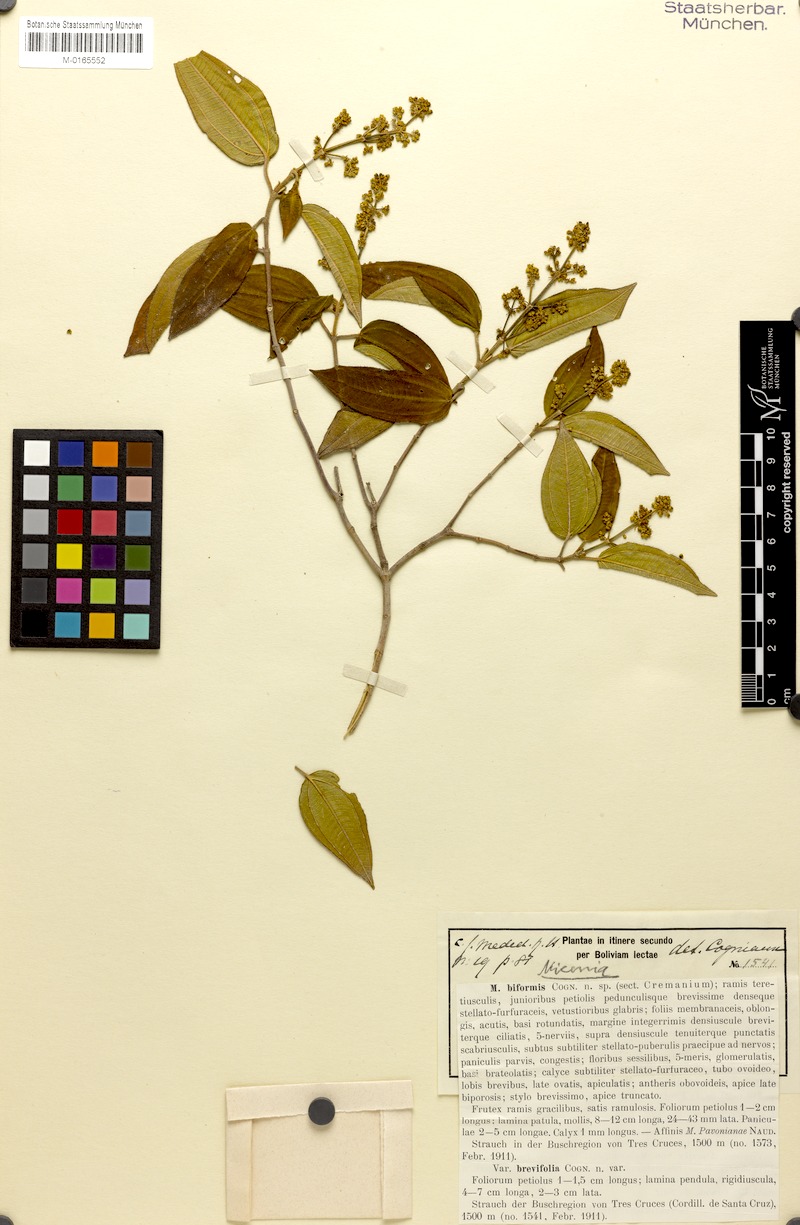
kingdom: Plantae
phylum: Tracheophyta
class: Magnoliopsida
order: Myrtales
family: Melastomataceae
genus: Miconia
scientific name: Miconia biformis
